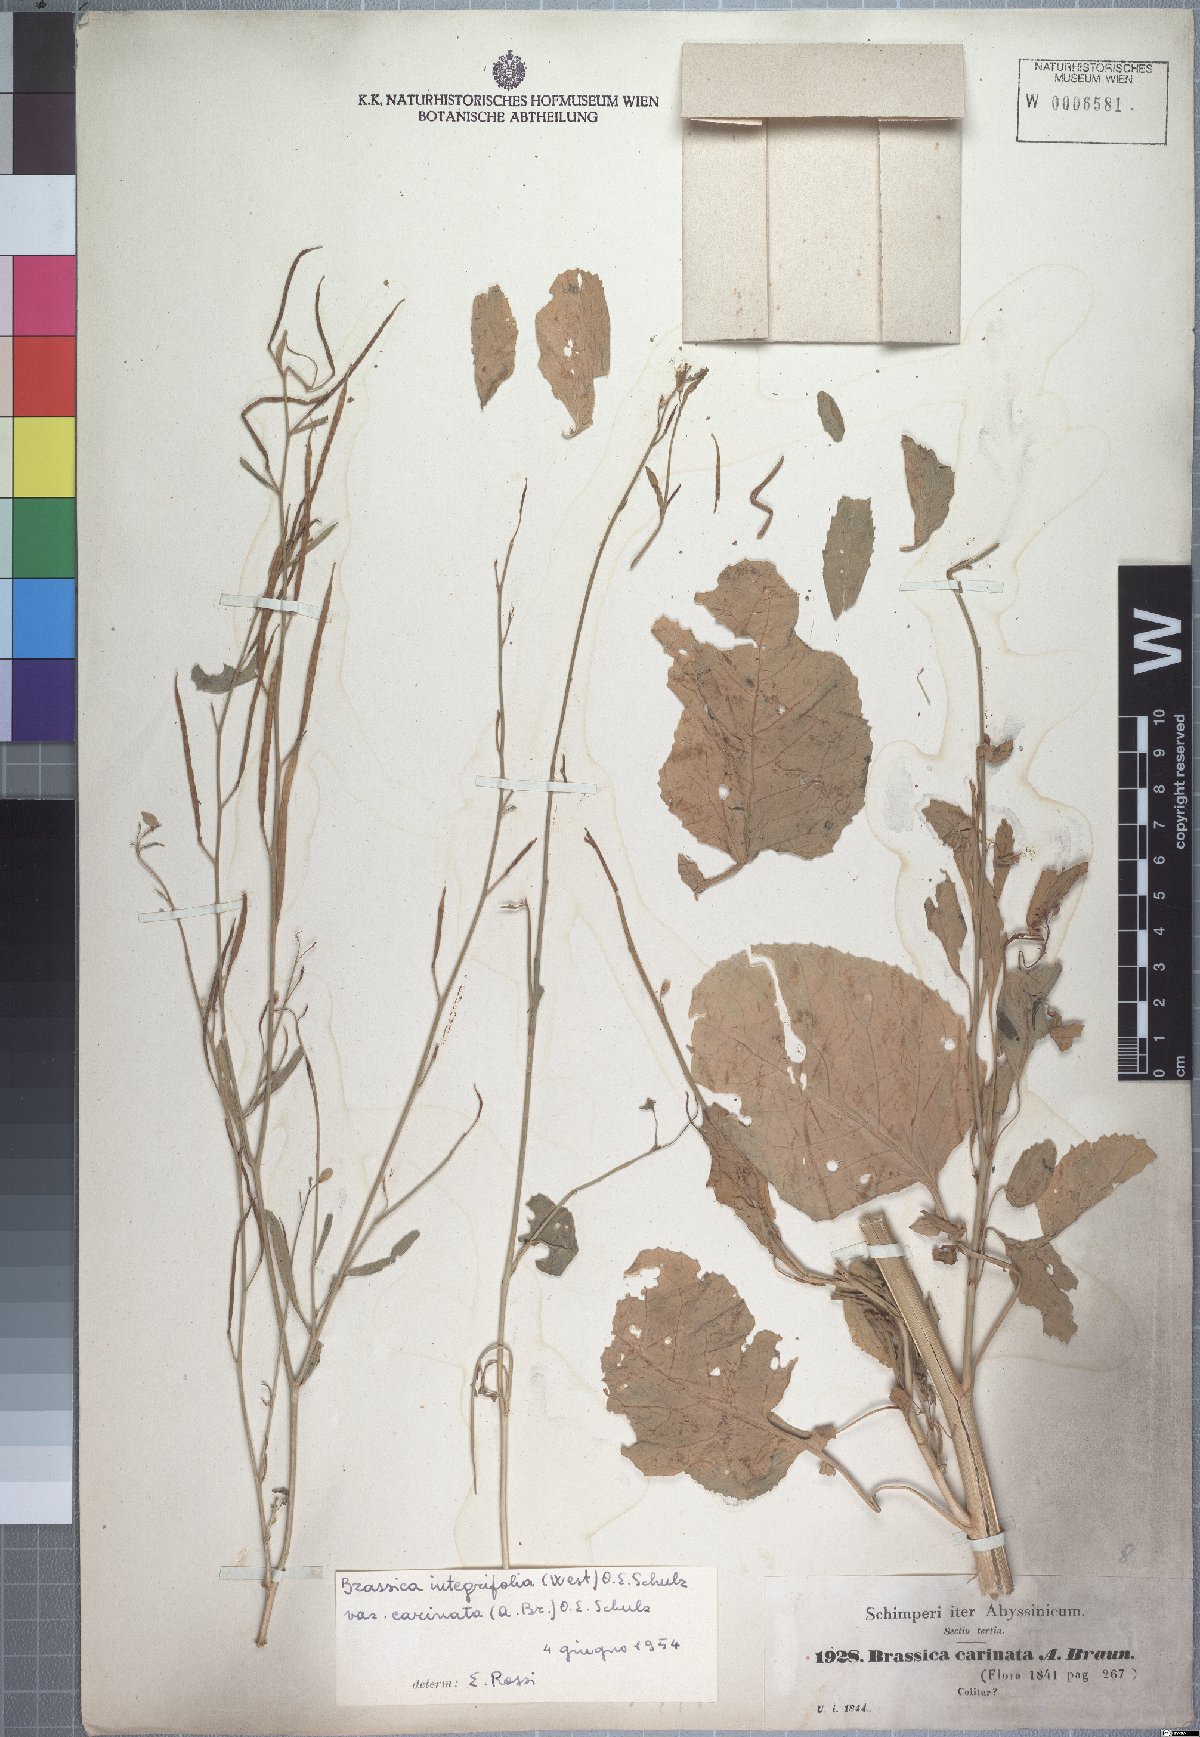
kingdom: Plantae
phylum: Tracheophyta
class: Magnoliopsida
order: Brassicales
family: Brassicaceae
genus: Brassica
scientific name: Brassica
